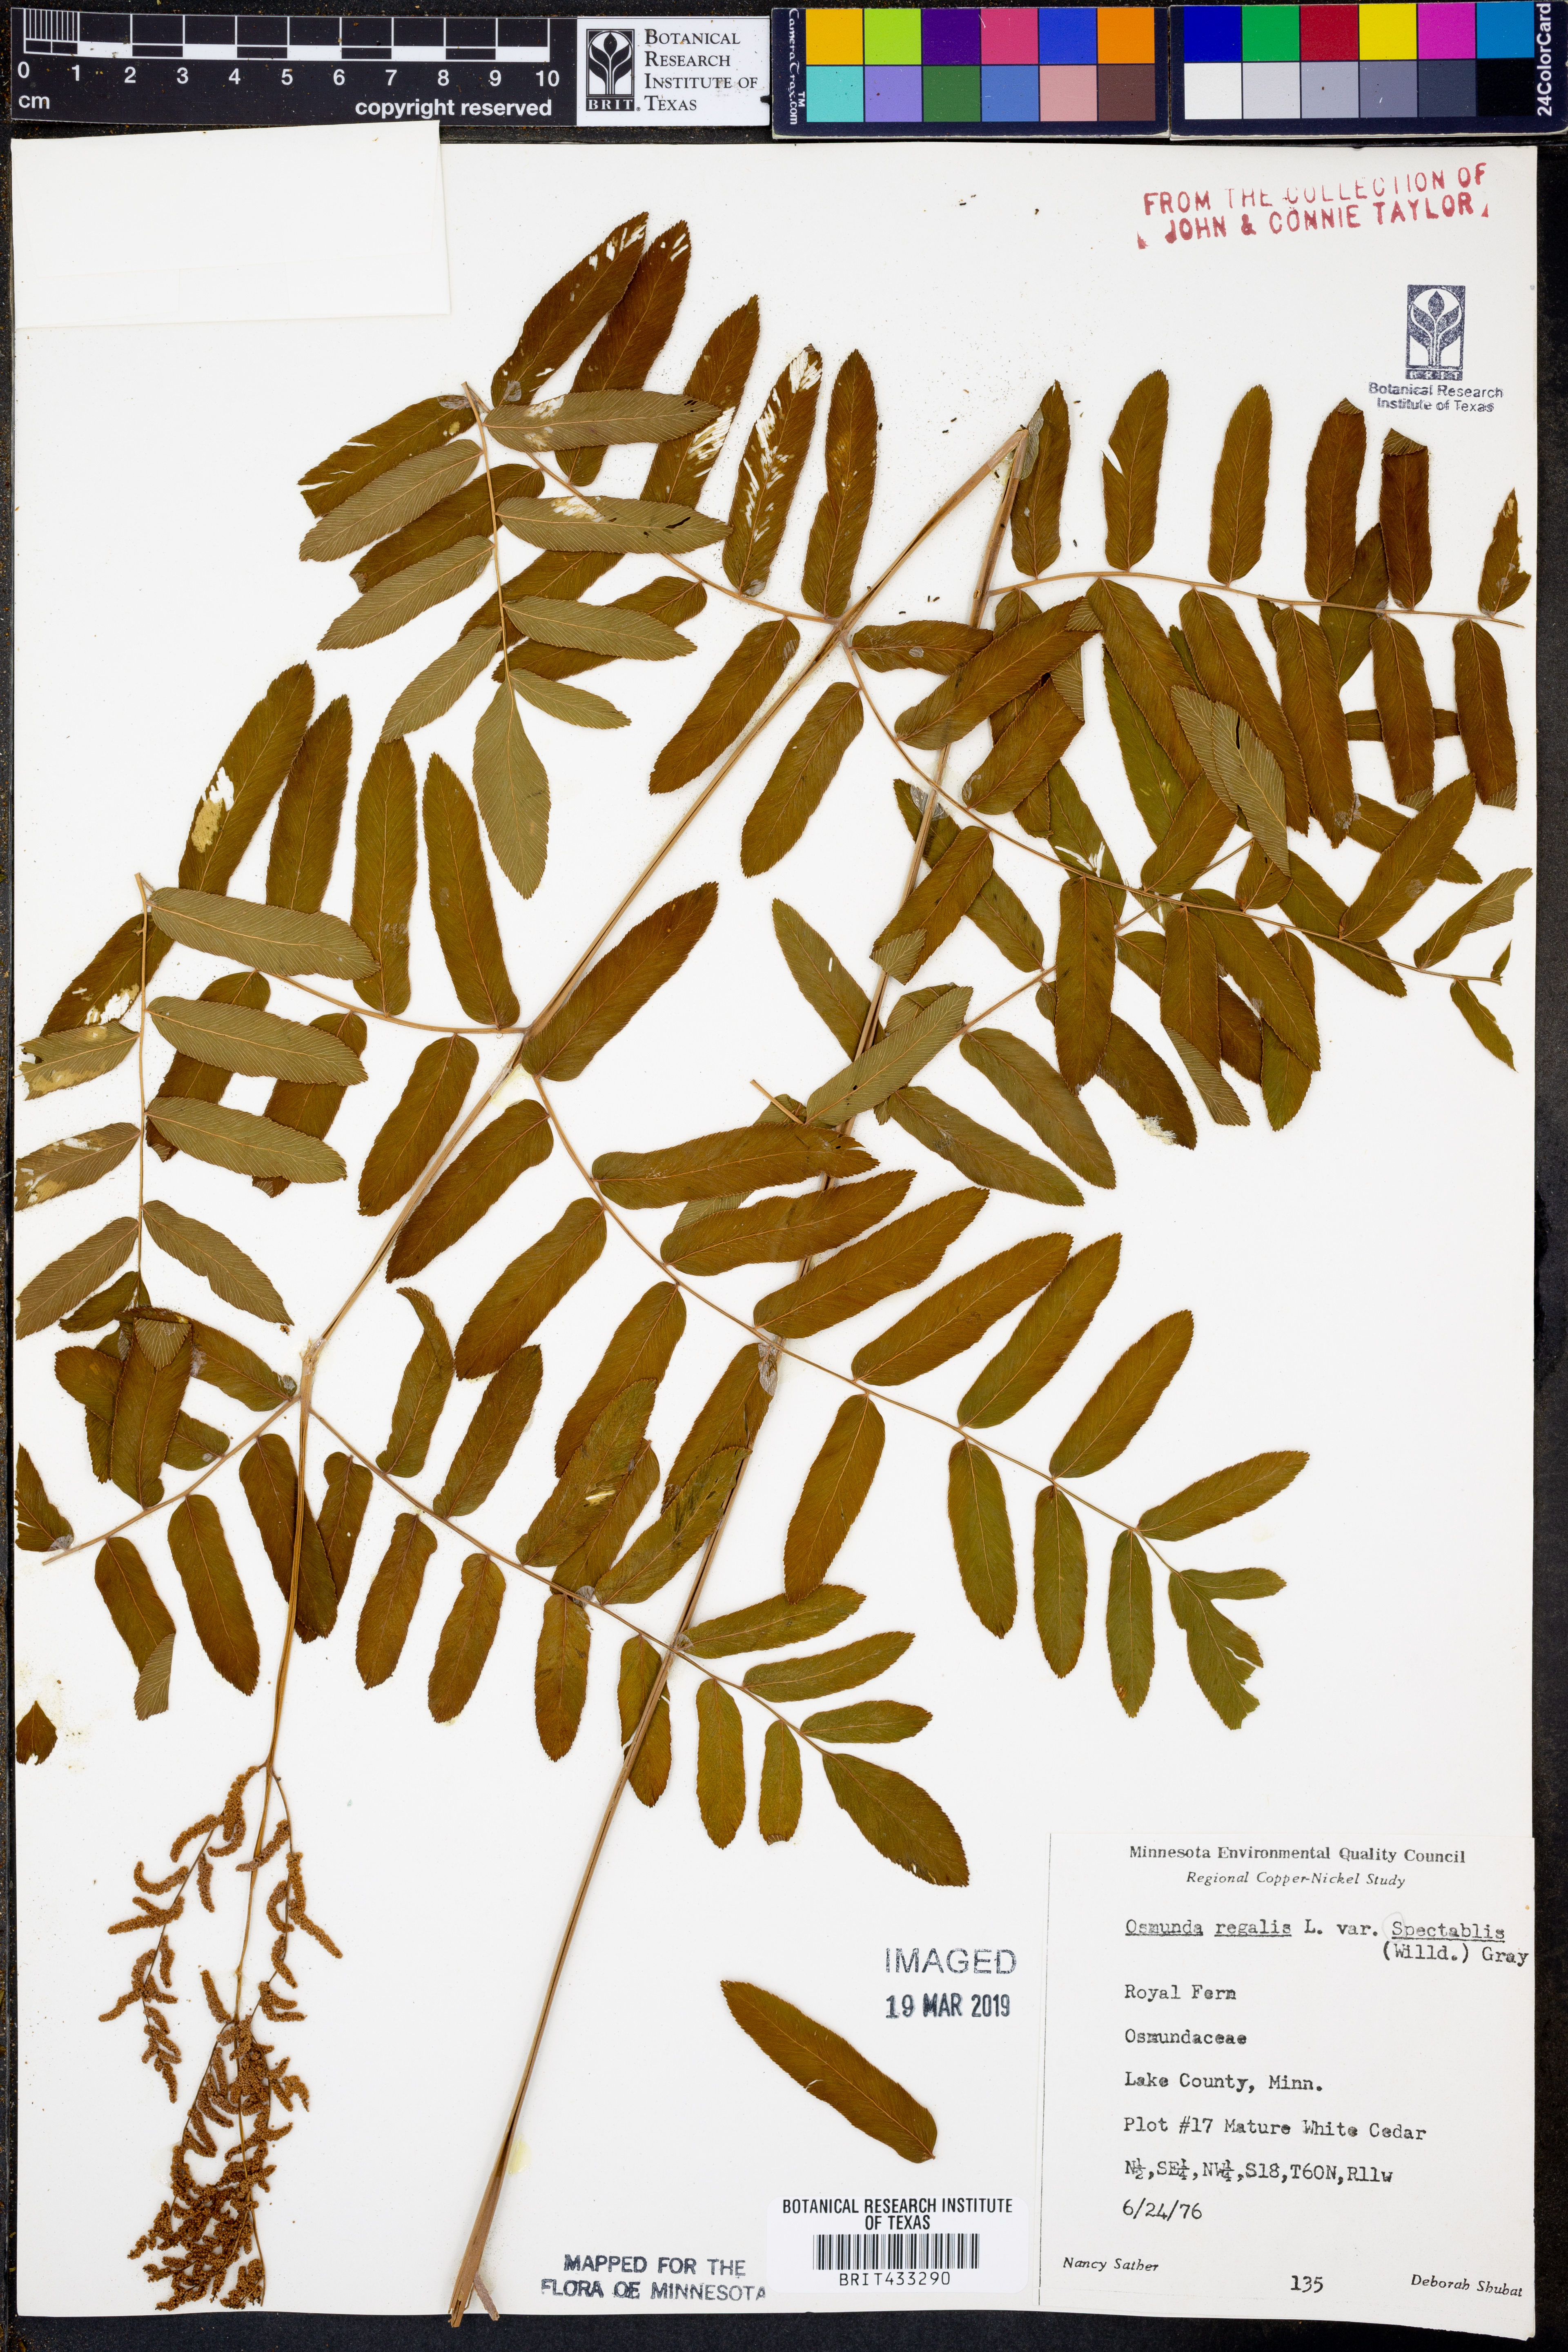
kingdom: Plantae
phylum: Tracheophyta
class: Polypodiopsida
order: Osmundales
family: Osmundaceae
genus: Osmunda
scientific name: Osmunda spectabilis
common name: American royal fern
